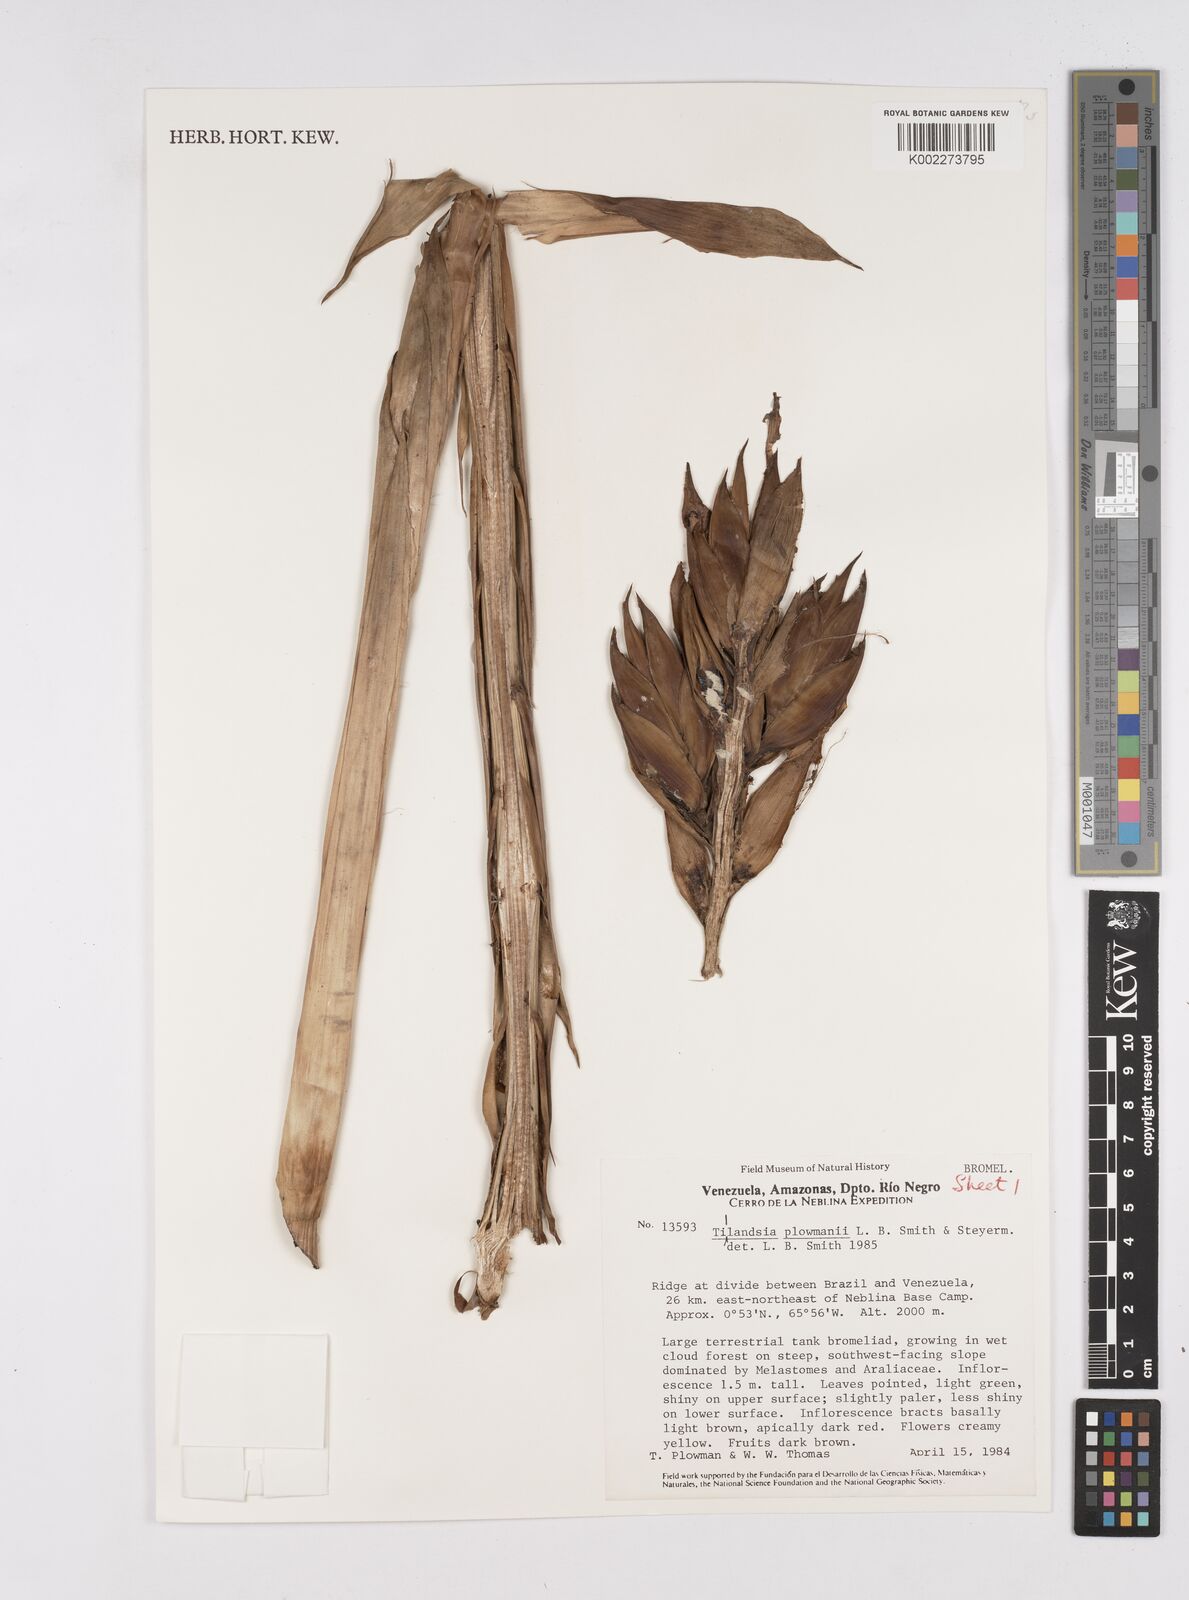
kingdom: Plantae
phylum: Tracheophyta
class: Liliopsida
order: Poales
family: Bromeliaceae
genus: Tillandsia
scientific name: Tillandsia
